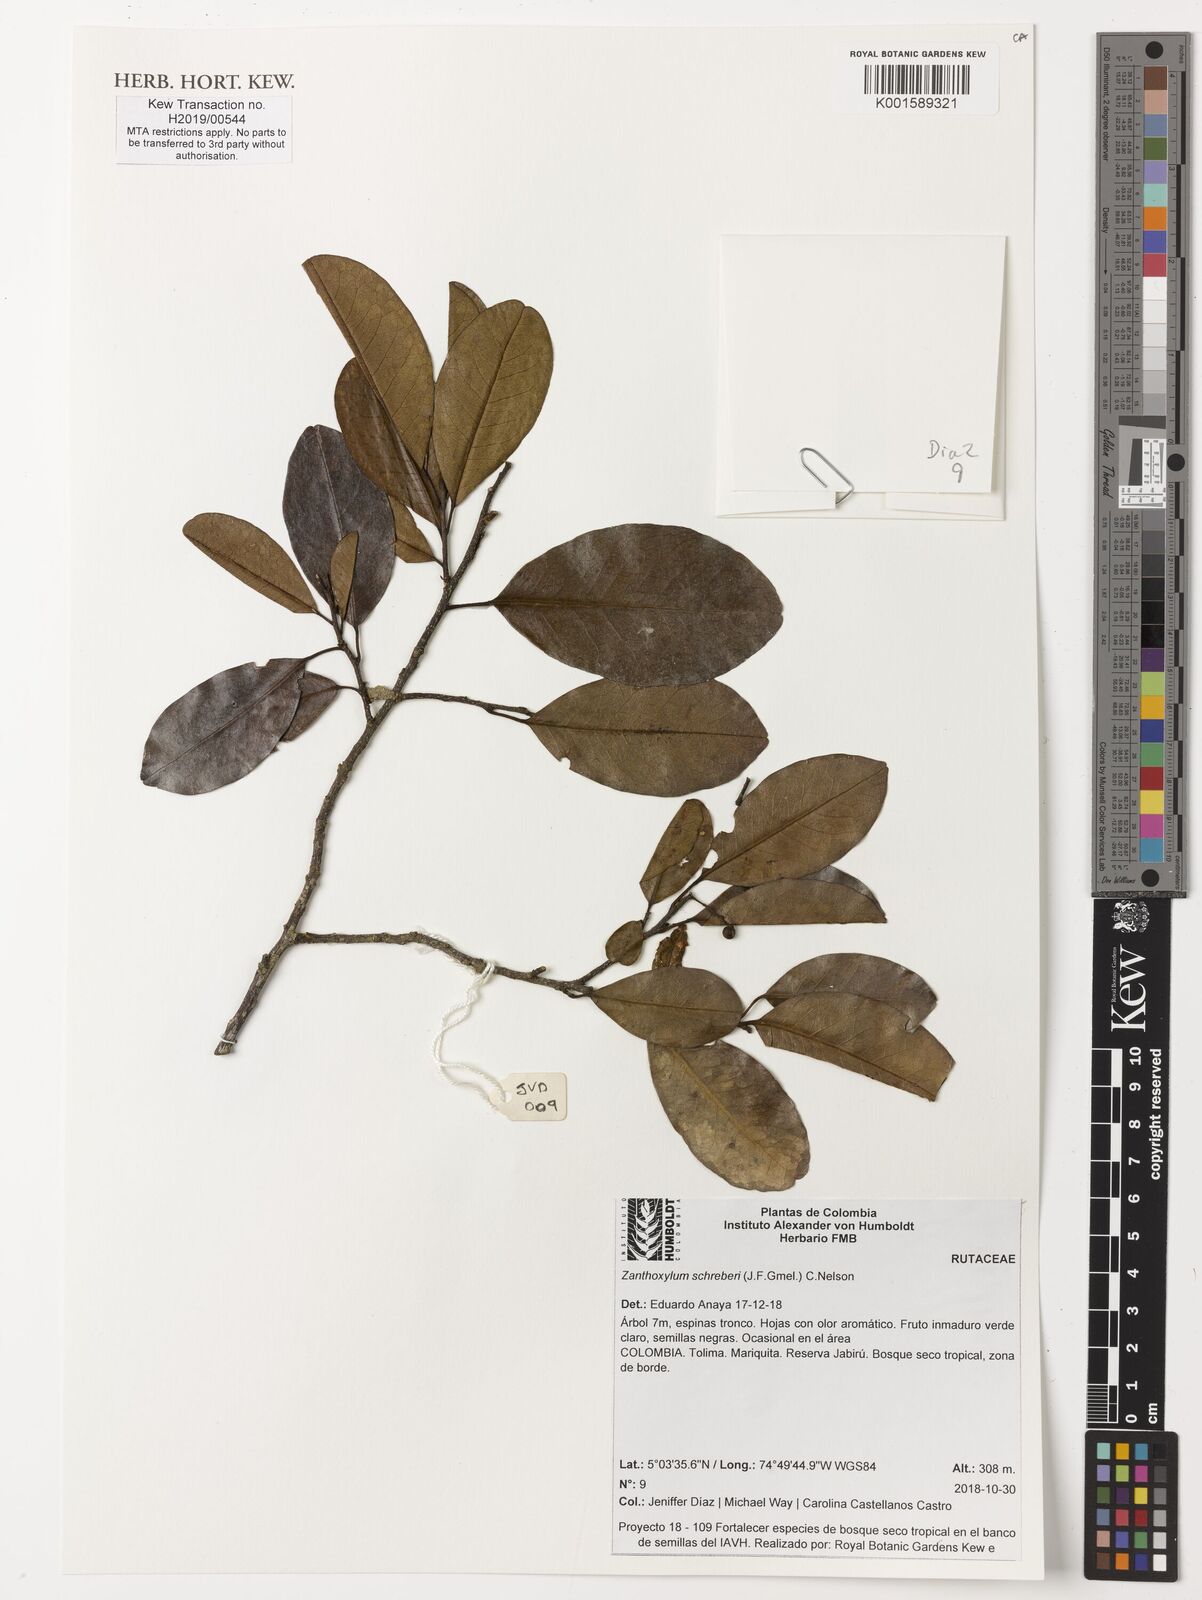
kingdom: Plantae
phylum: Tracheophyta
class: Magnoliopsida
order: Sapindales
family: Rutaceae
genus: Zanthoxylum
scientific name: Zanthoxylum schreberi
